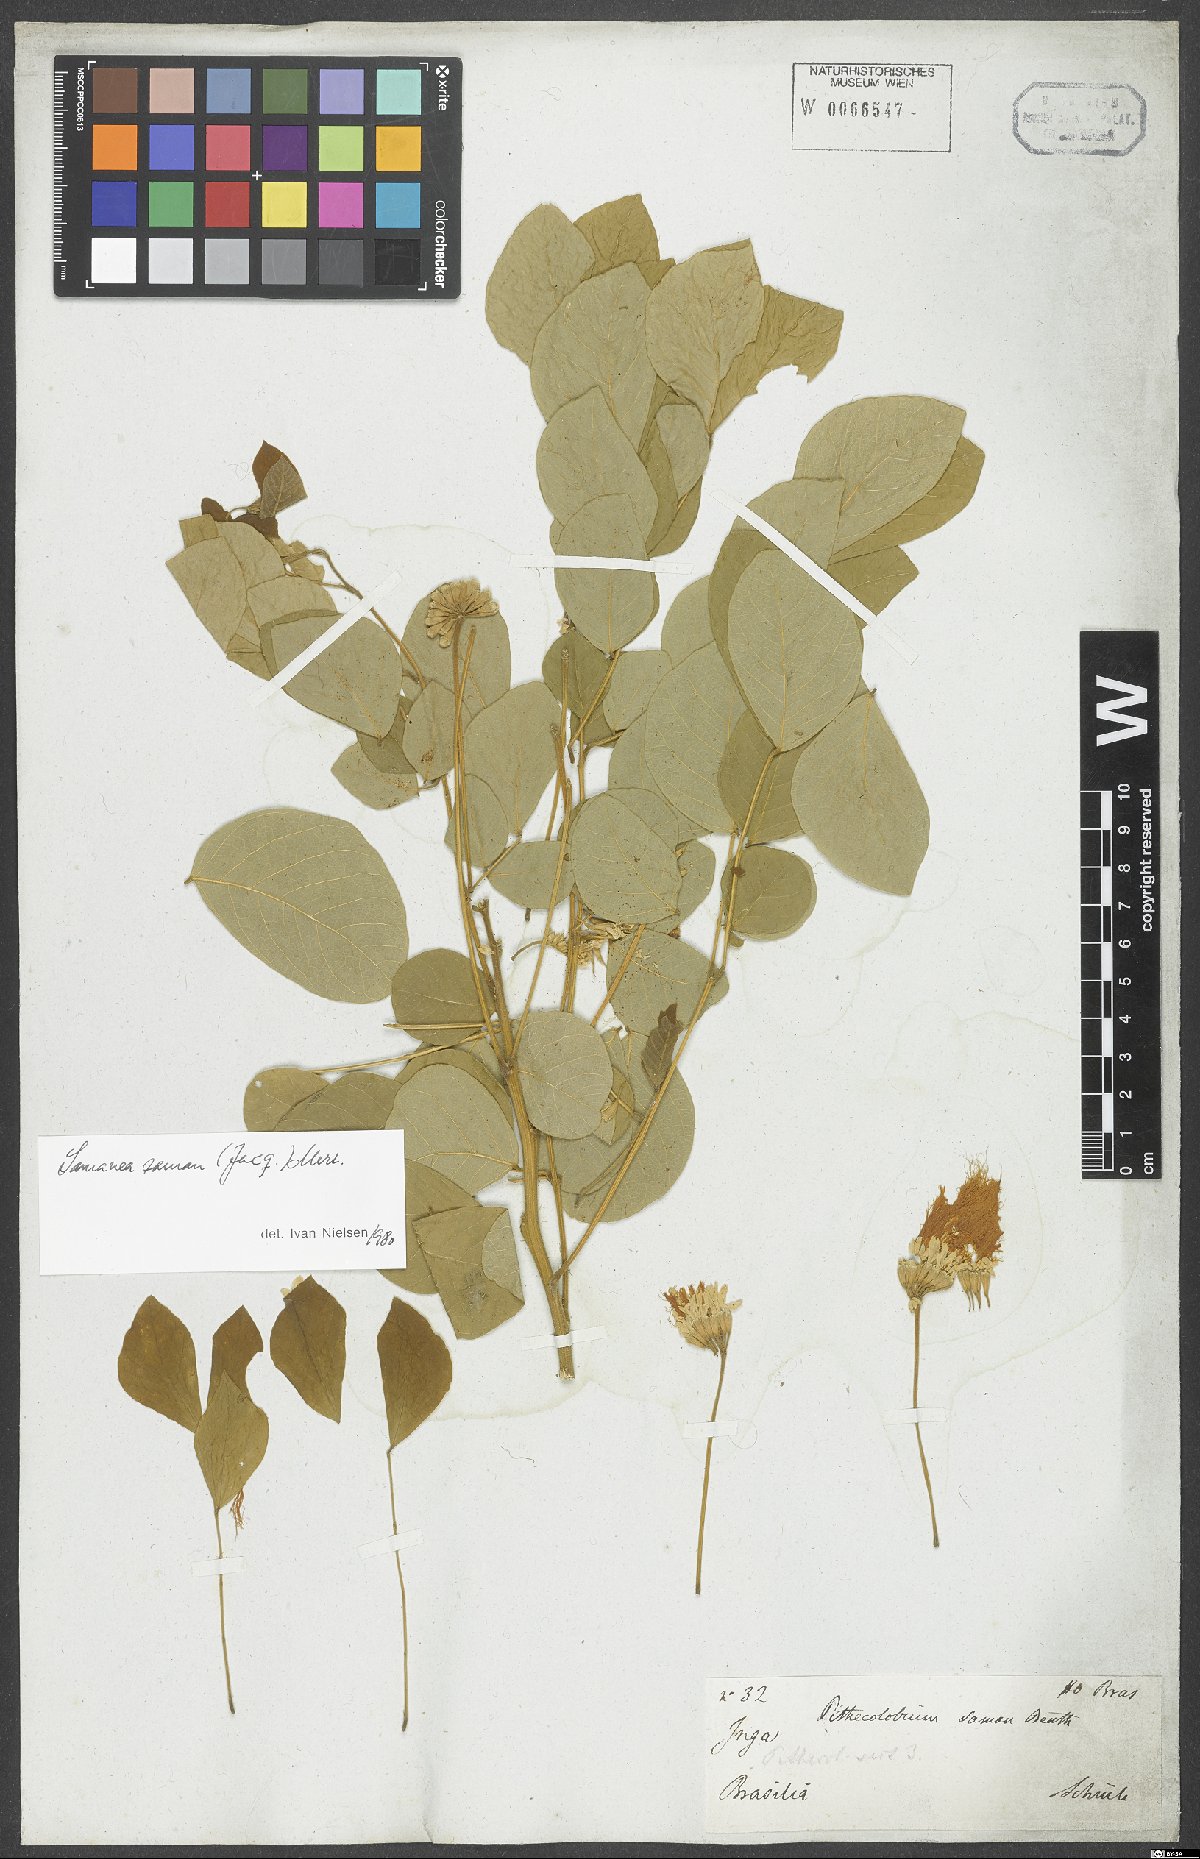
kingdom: Plantae
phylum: Tracheophyta
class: Magnoliopsida
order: Fabales
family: Fabaceae
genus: Samanea
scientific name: Samanea saman
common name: Raintree
